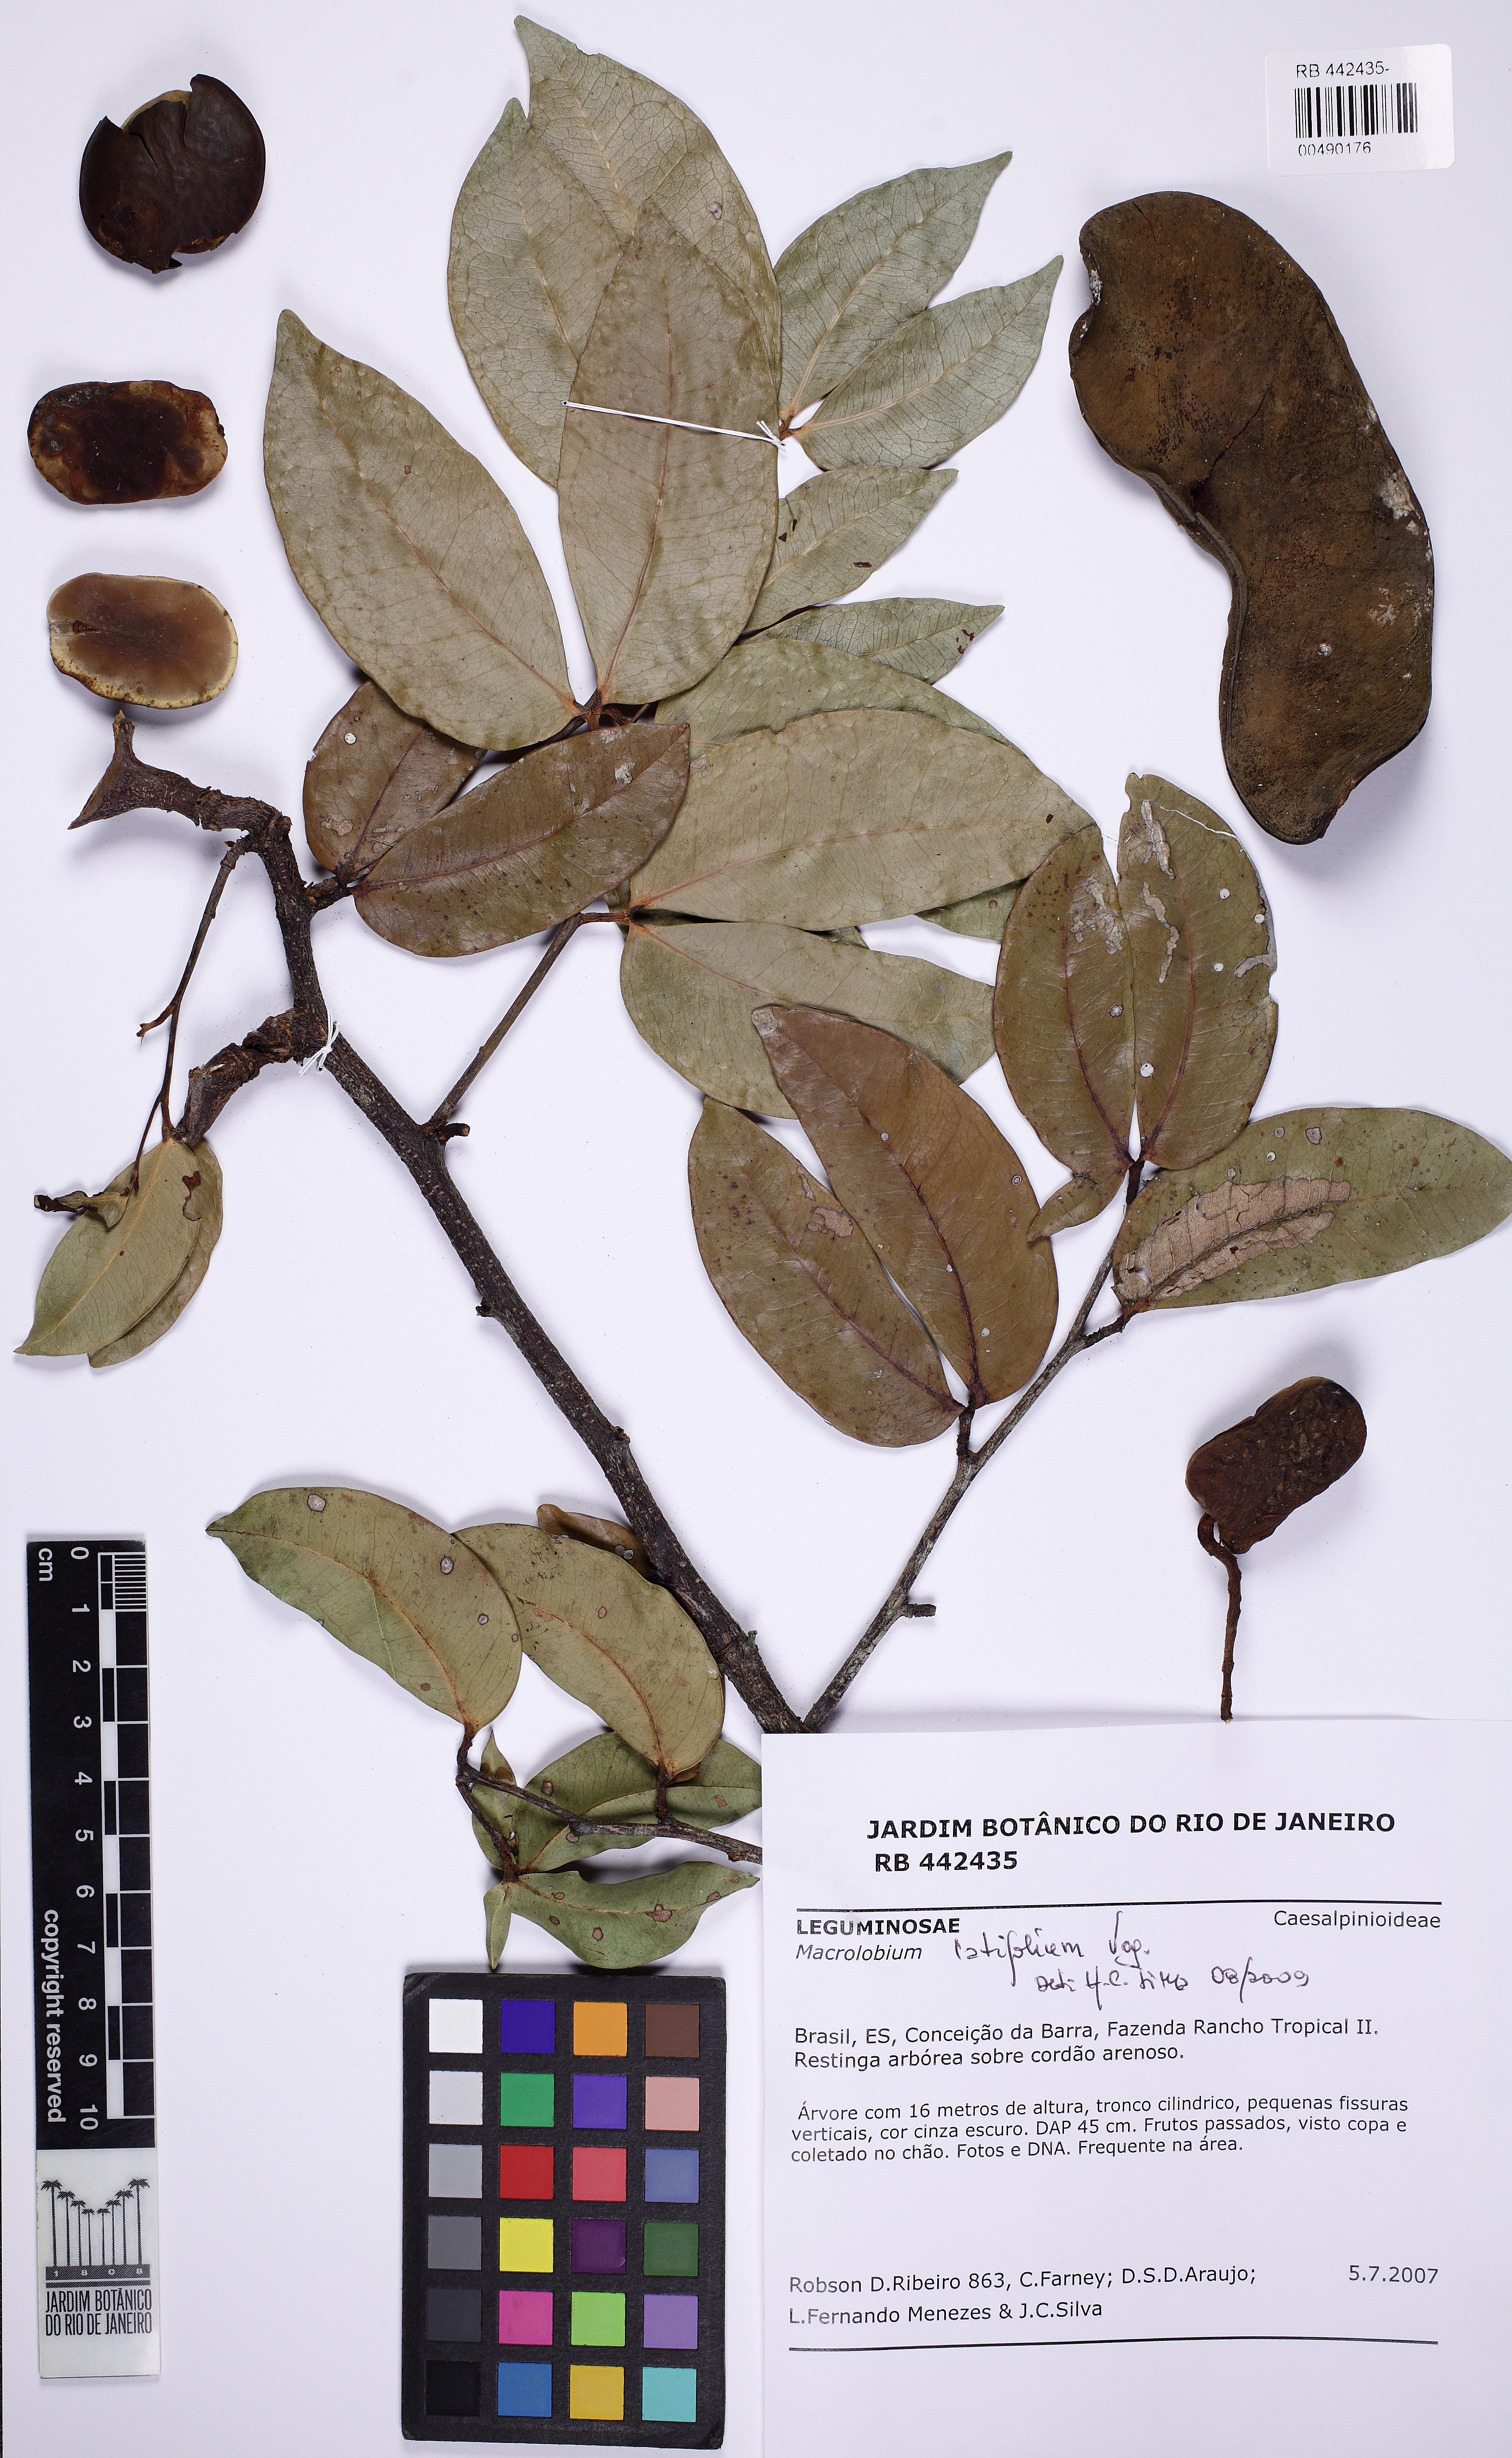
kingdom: Plantae
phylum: Tracheophyta
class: Magnoliopsida
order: Fabales
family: Fabaceae
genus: Macrolobium
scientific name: Macrolobium
